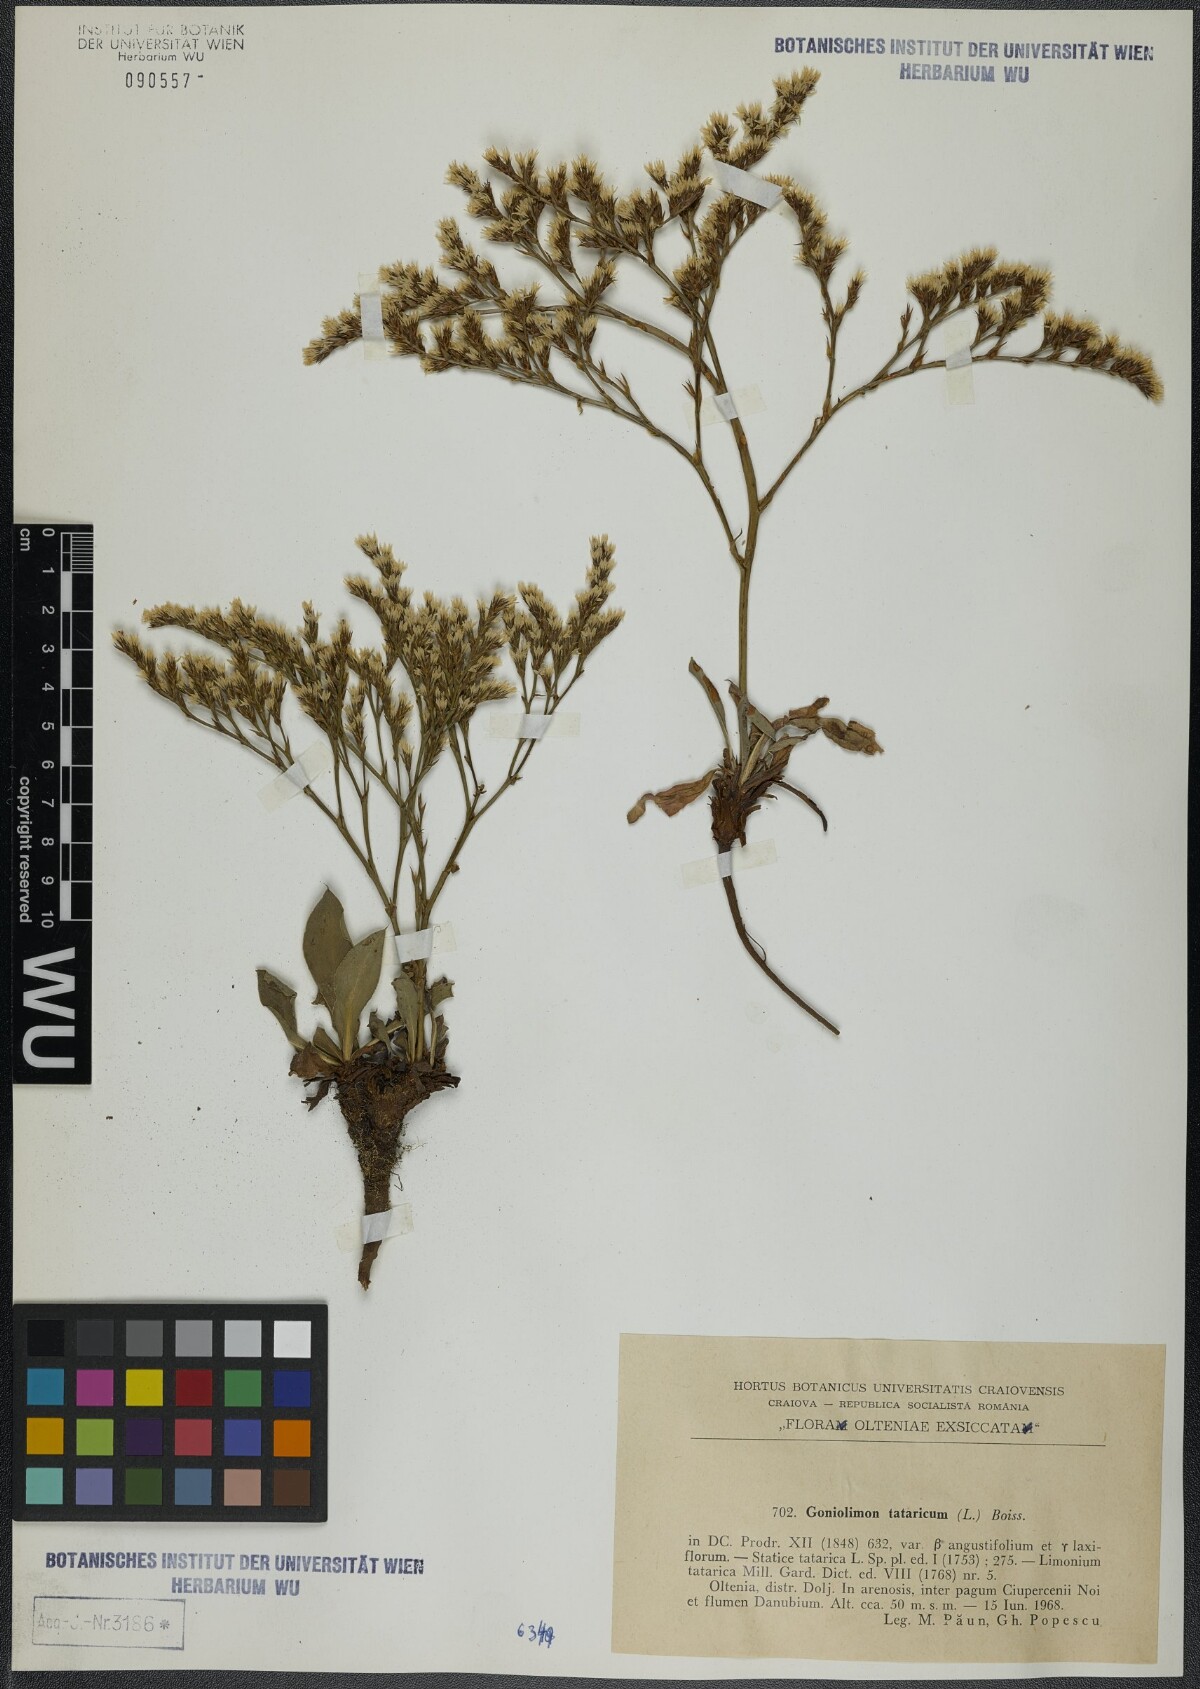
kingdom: Plantae
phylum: Tracheophyta
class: Magnoliopsida
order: Caryophyllales
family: Plumbaginaceae
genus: Goniolimon
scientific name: Goniolimon tataricum
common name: Statice
